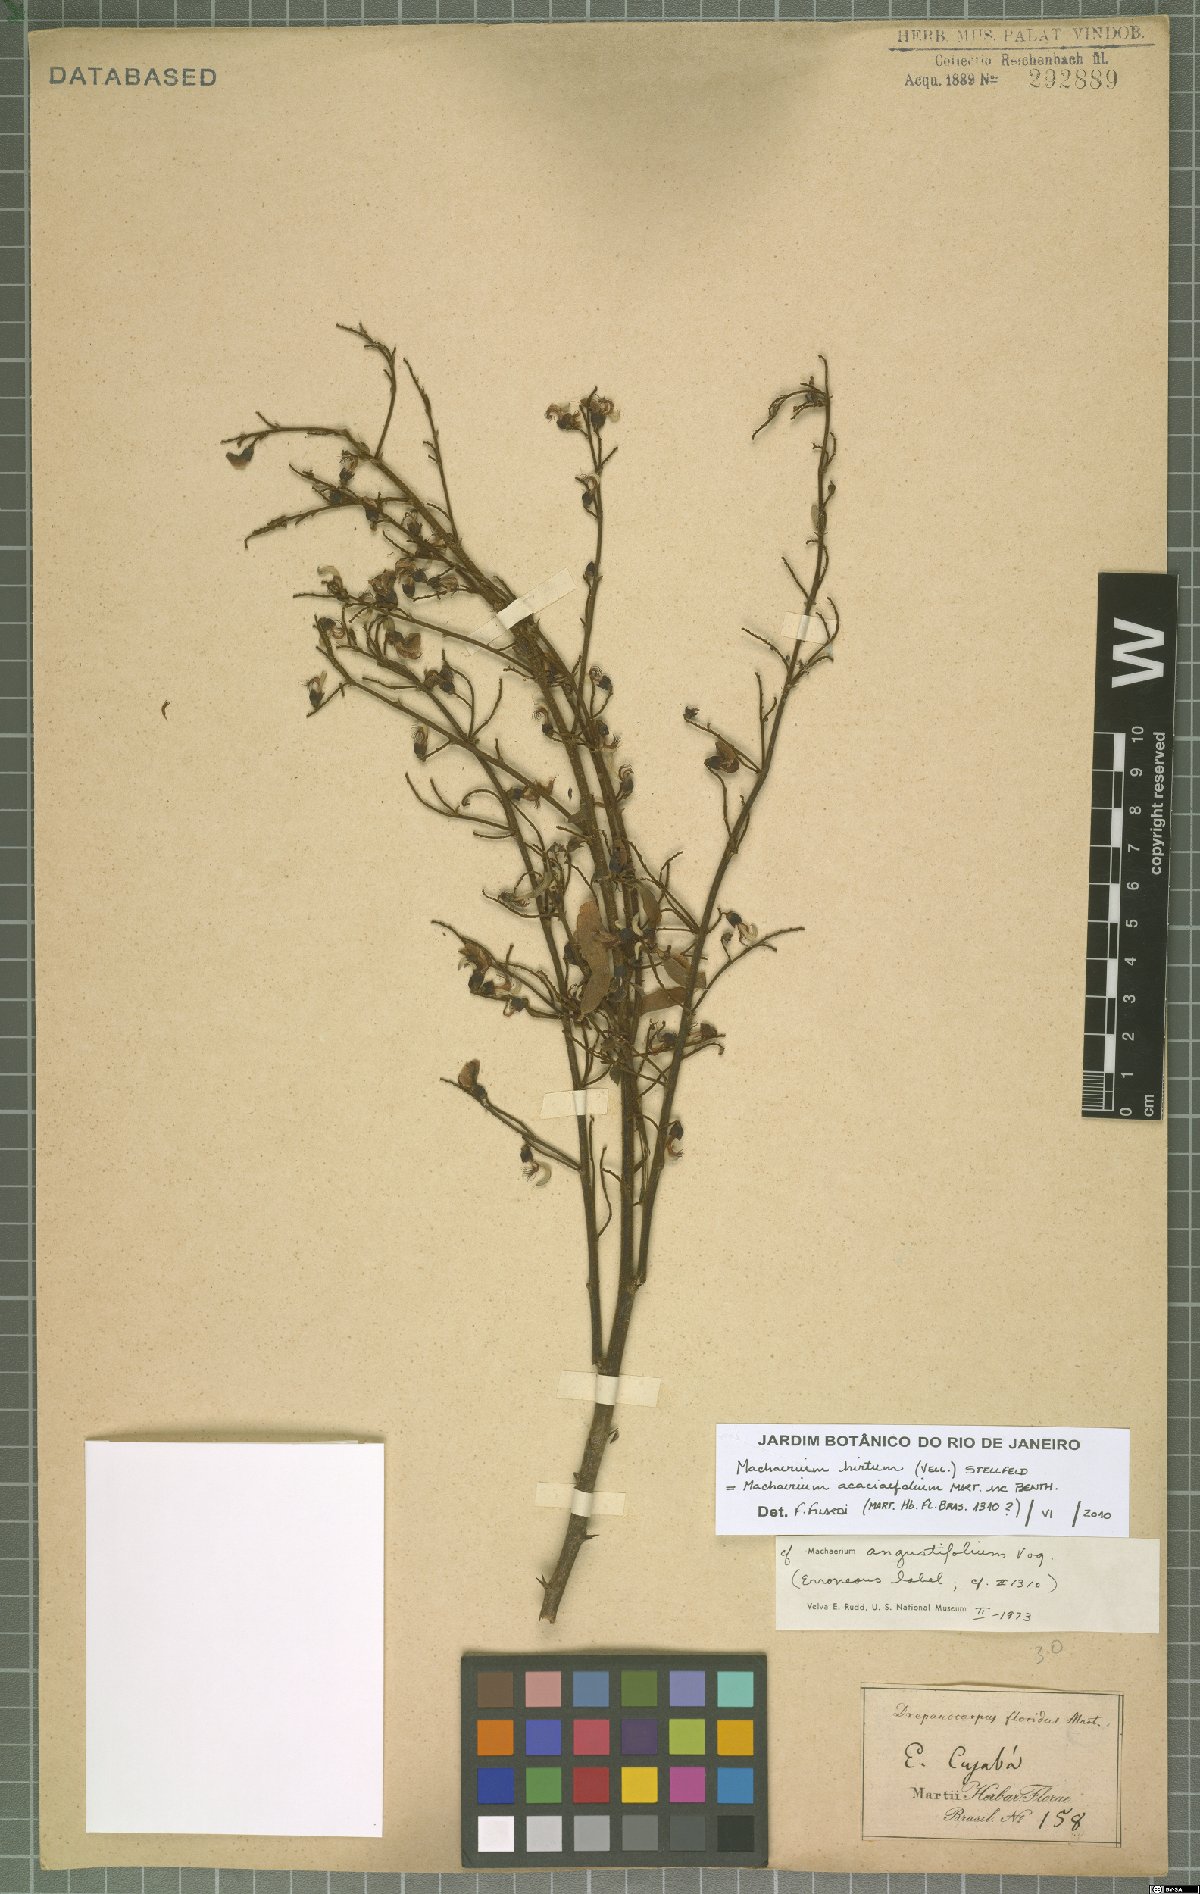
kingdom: Plantae
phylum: Tracheophyta
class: Magnoliopsida
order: Fabales
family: Fabaceae
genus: Machaerium
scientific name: Machaerium hirtum
